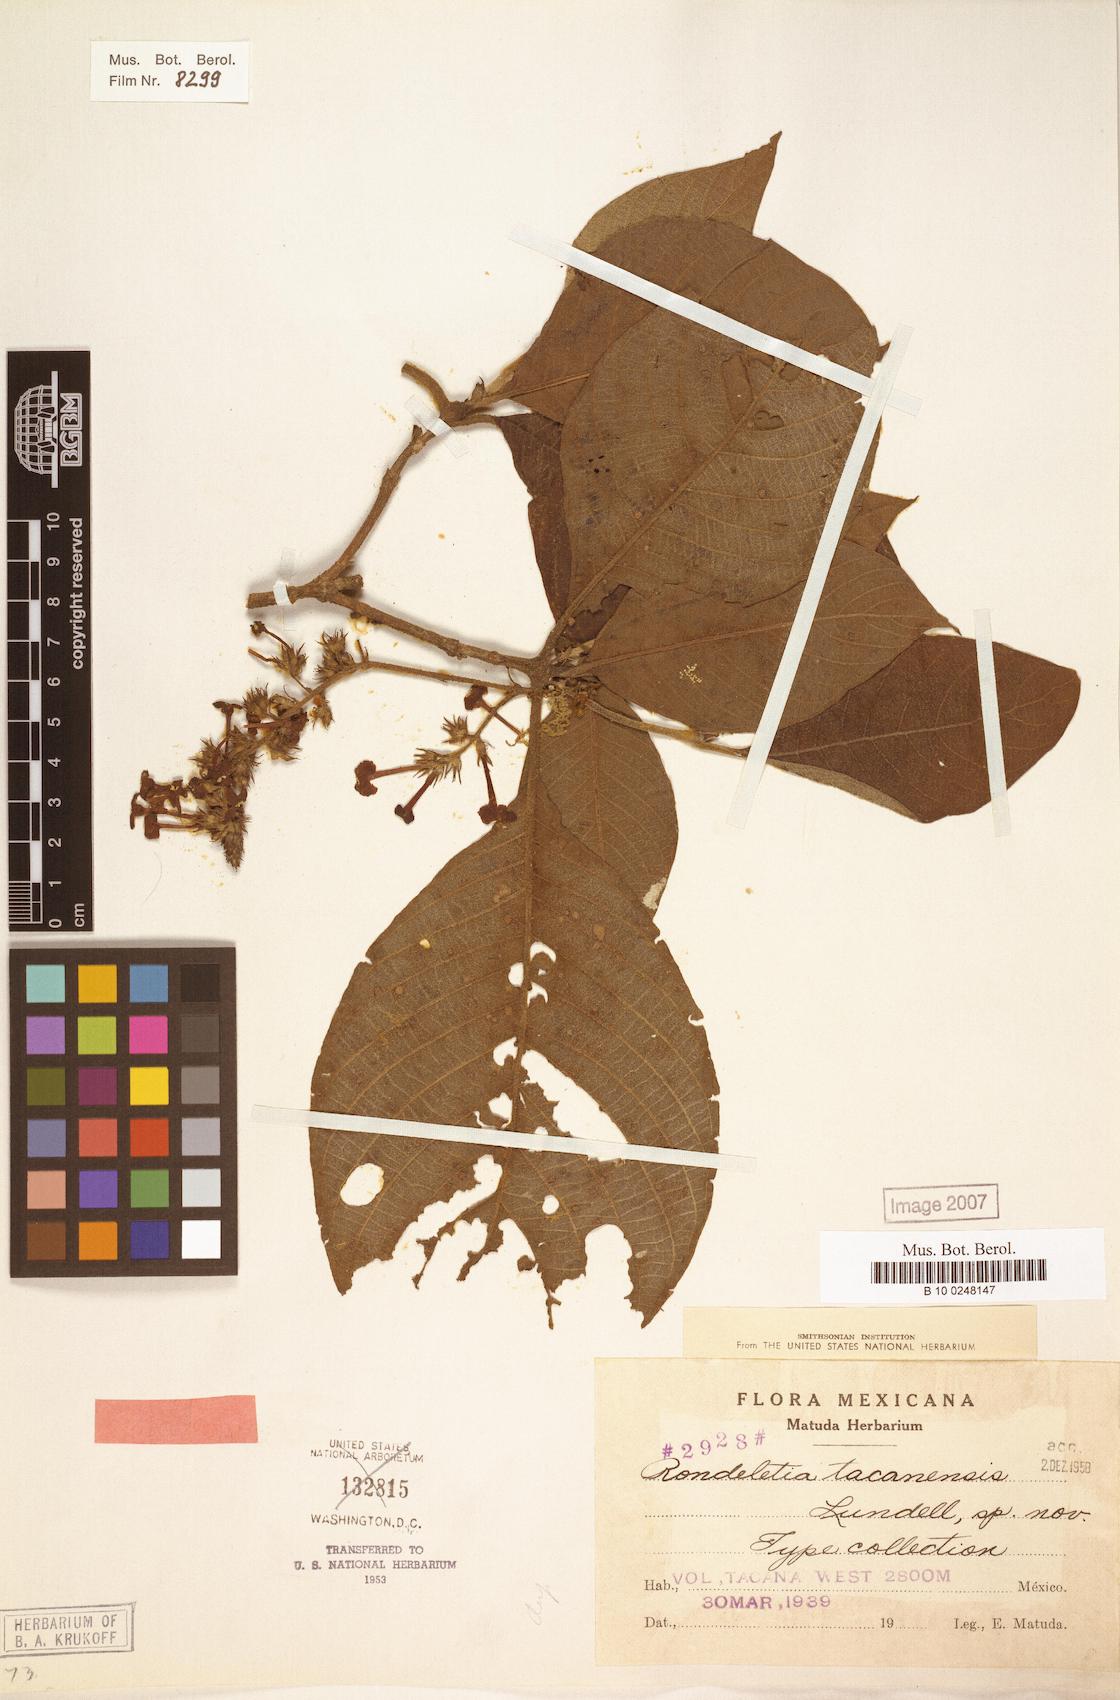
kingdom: Plantae
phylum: Tracheophyta
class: Magnoliopsida
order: Gentianales
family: Rubiaceae
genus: Arachnothryx
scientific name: Arachnothryx tacanensis
